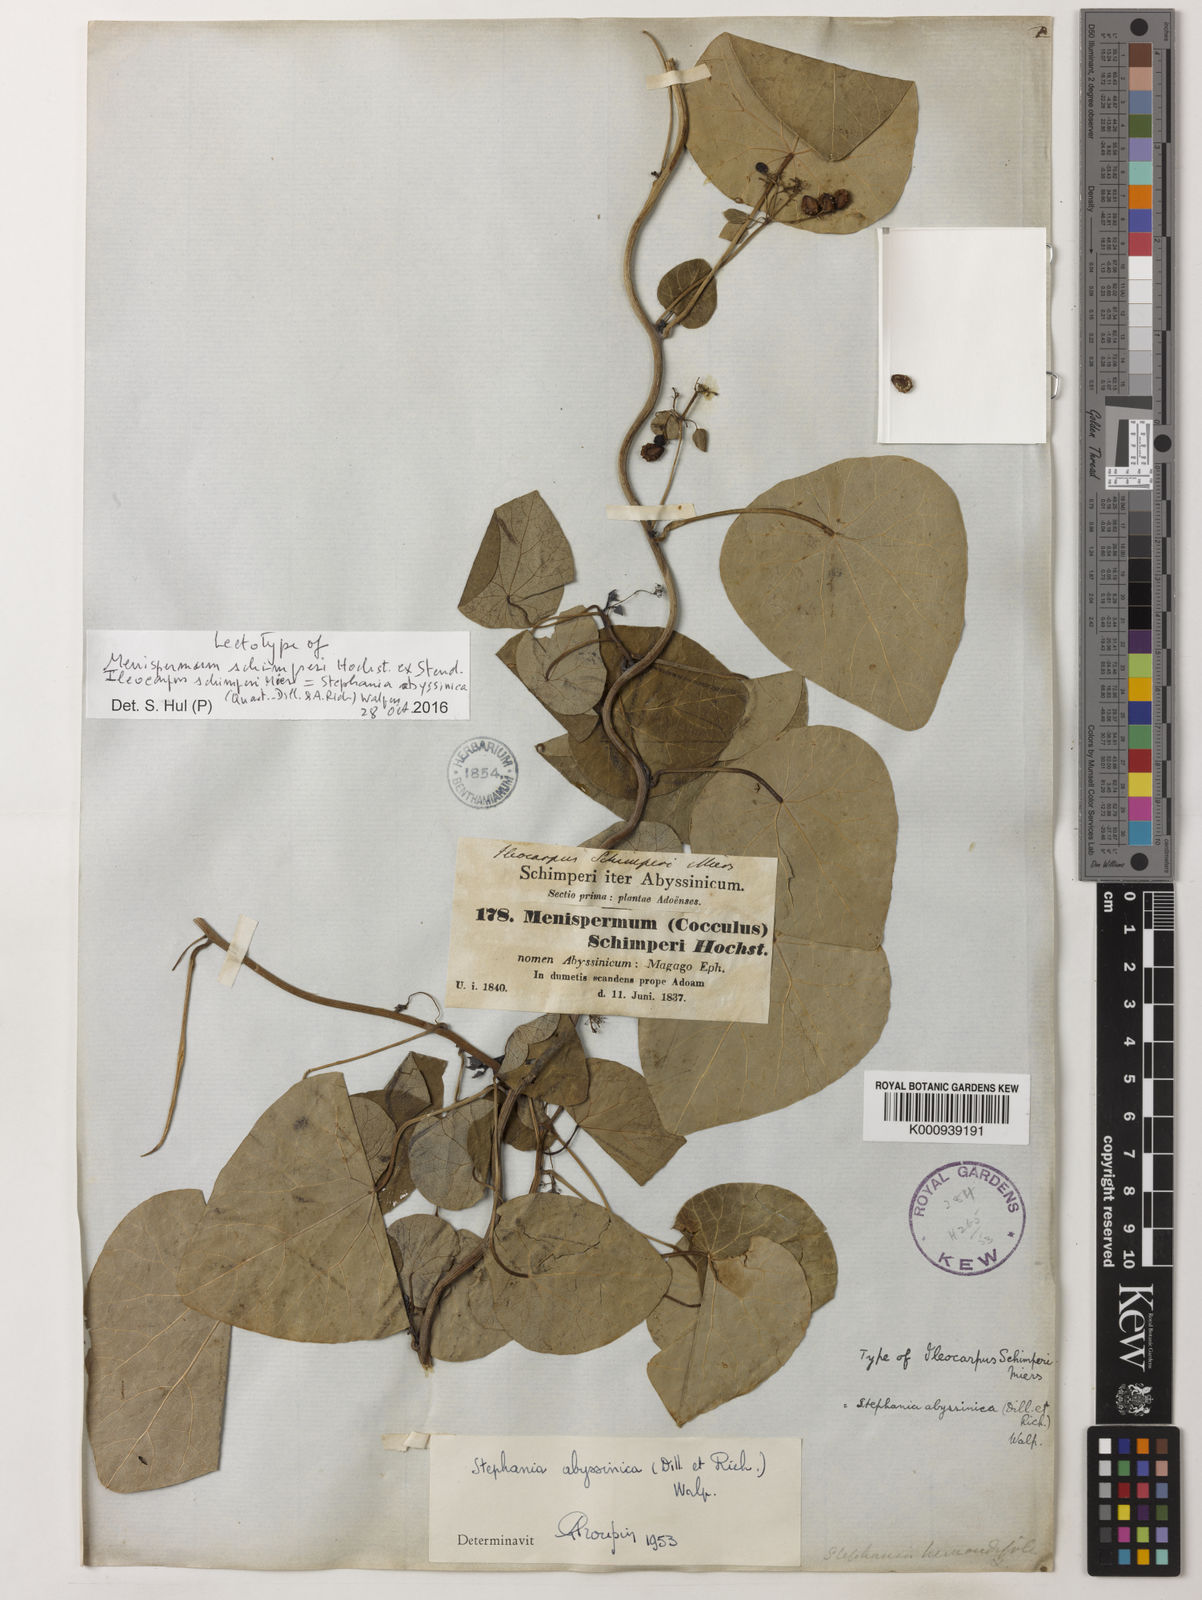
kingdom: Plantae
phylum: Tracheophyta
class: Magnoliopsida
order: Ranunculales
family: Menispermaceae
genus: Stephania
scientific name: Stephania
